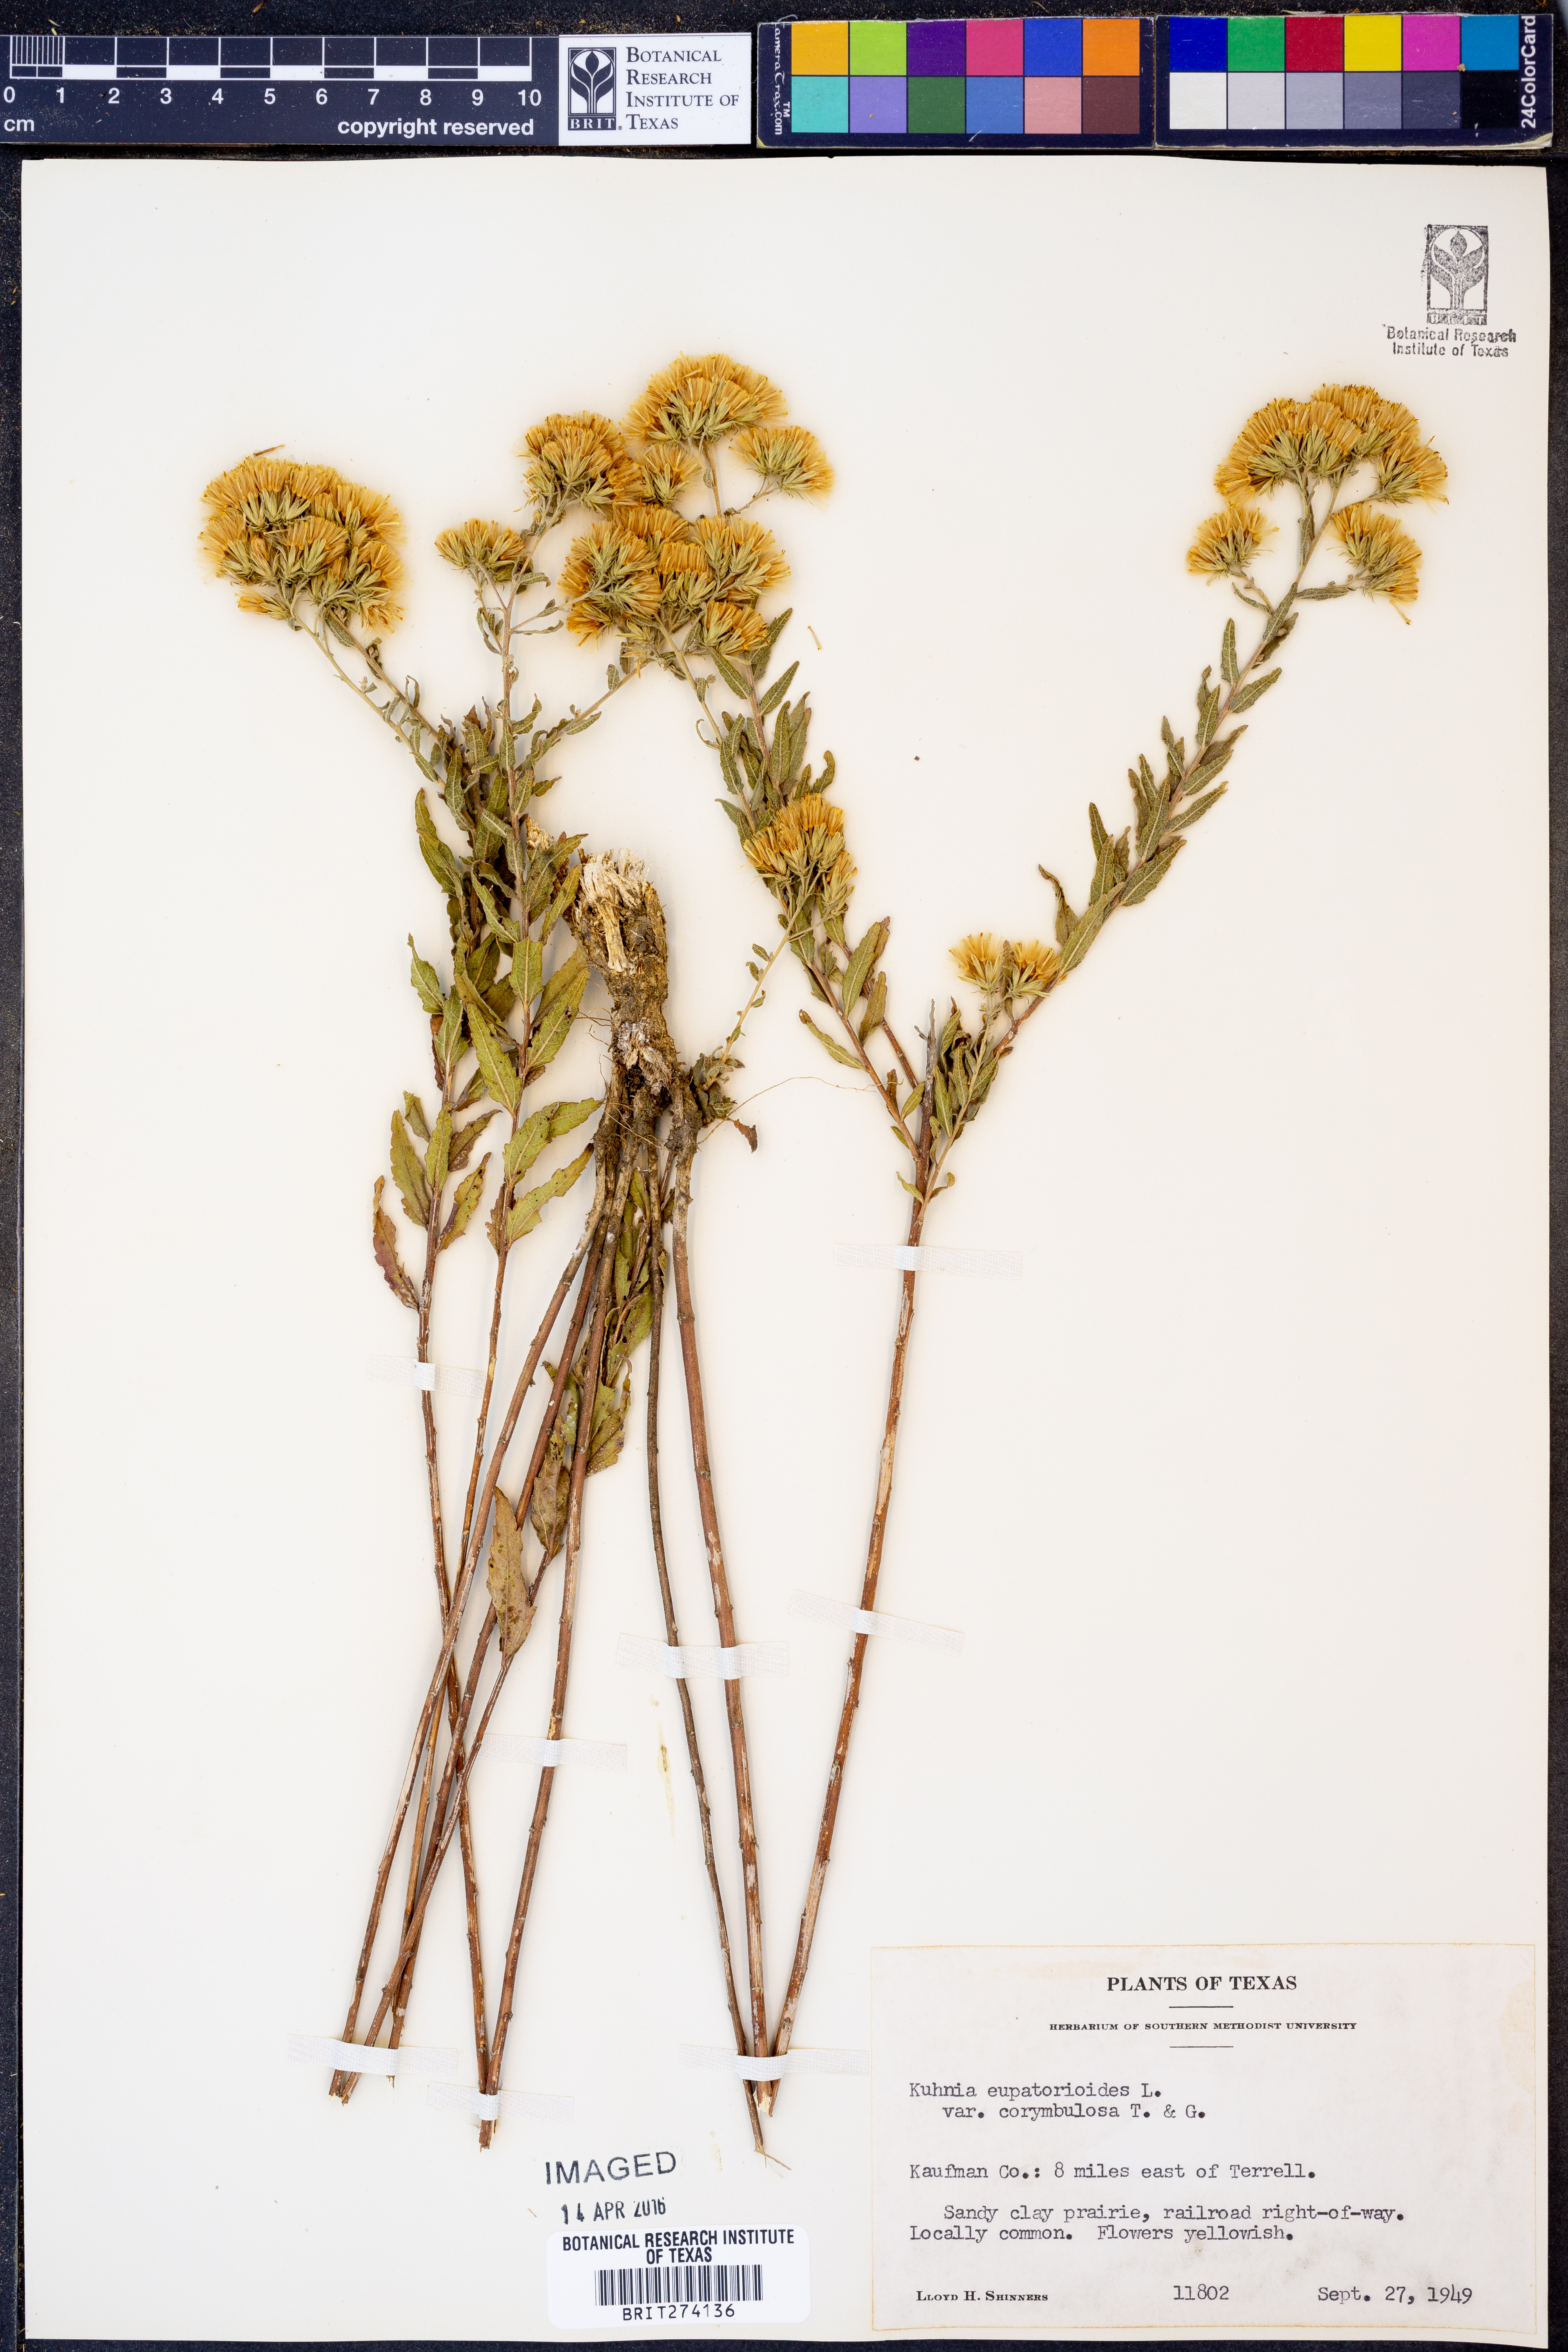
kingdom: Plantae
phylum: Tracheophyta
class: Magnoliopsida
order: Asterales
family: Asteraceae
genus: Brickellia
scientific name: Brickellia suaveolens
